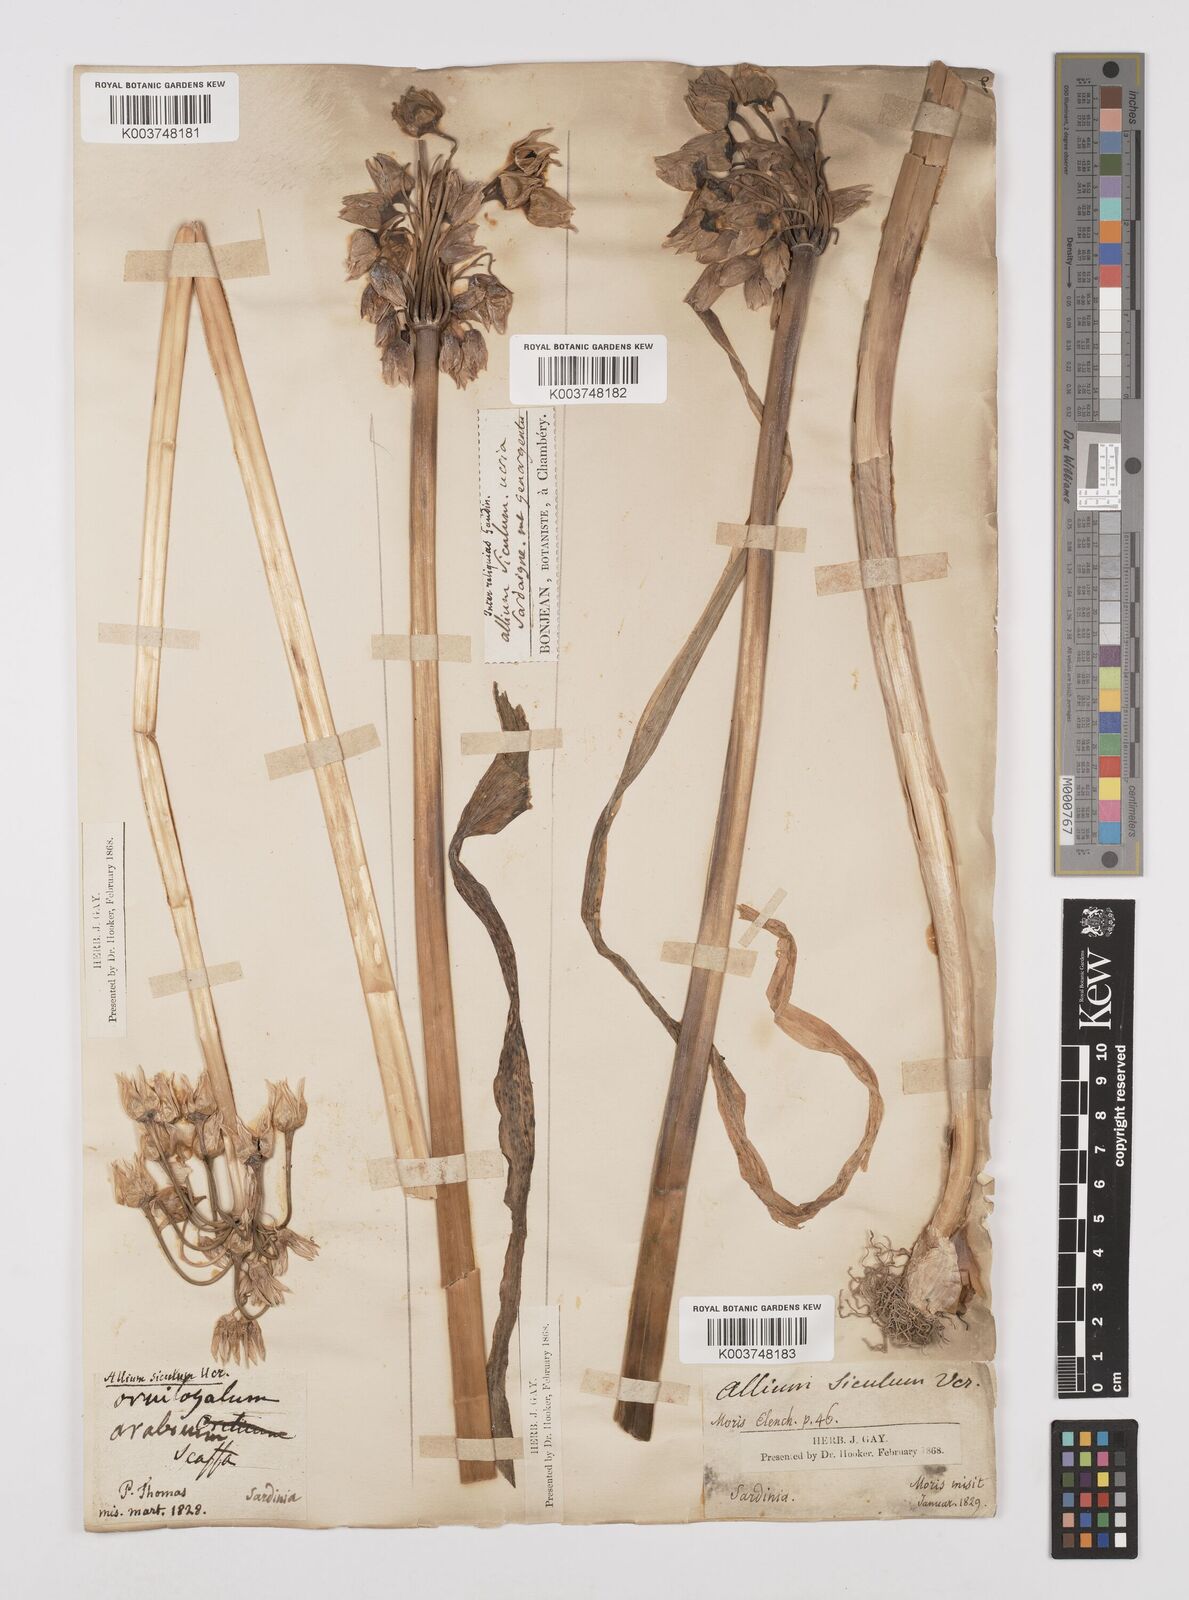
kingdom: Plantae
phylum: Tracheophyta
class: Liliopsida
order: Asparagales
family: Amaryllidaceae
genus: Allium
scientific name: Allium siculum
